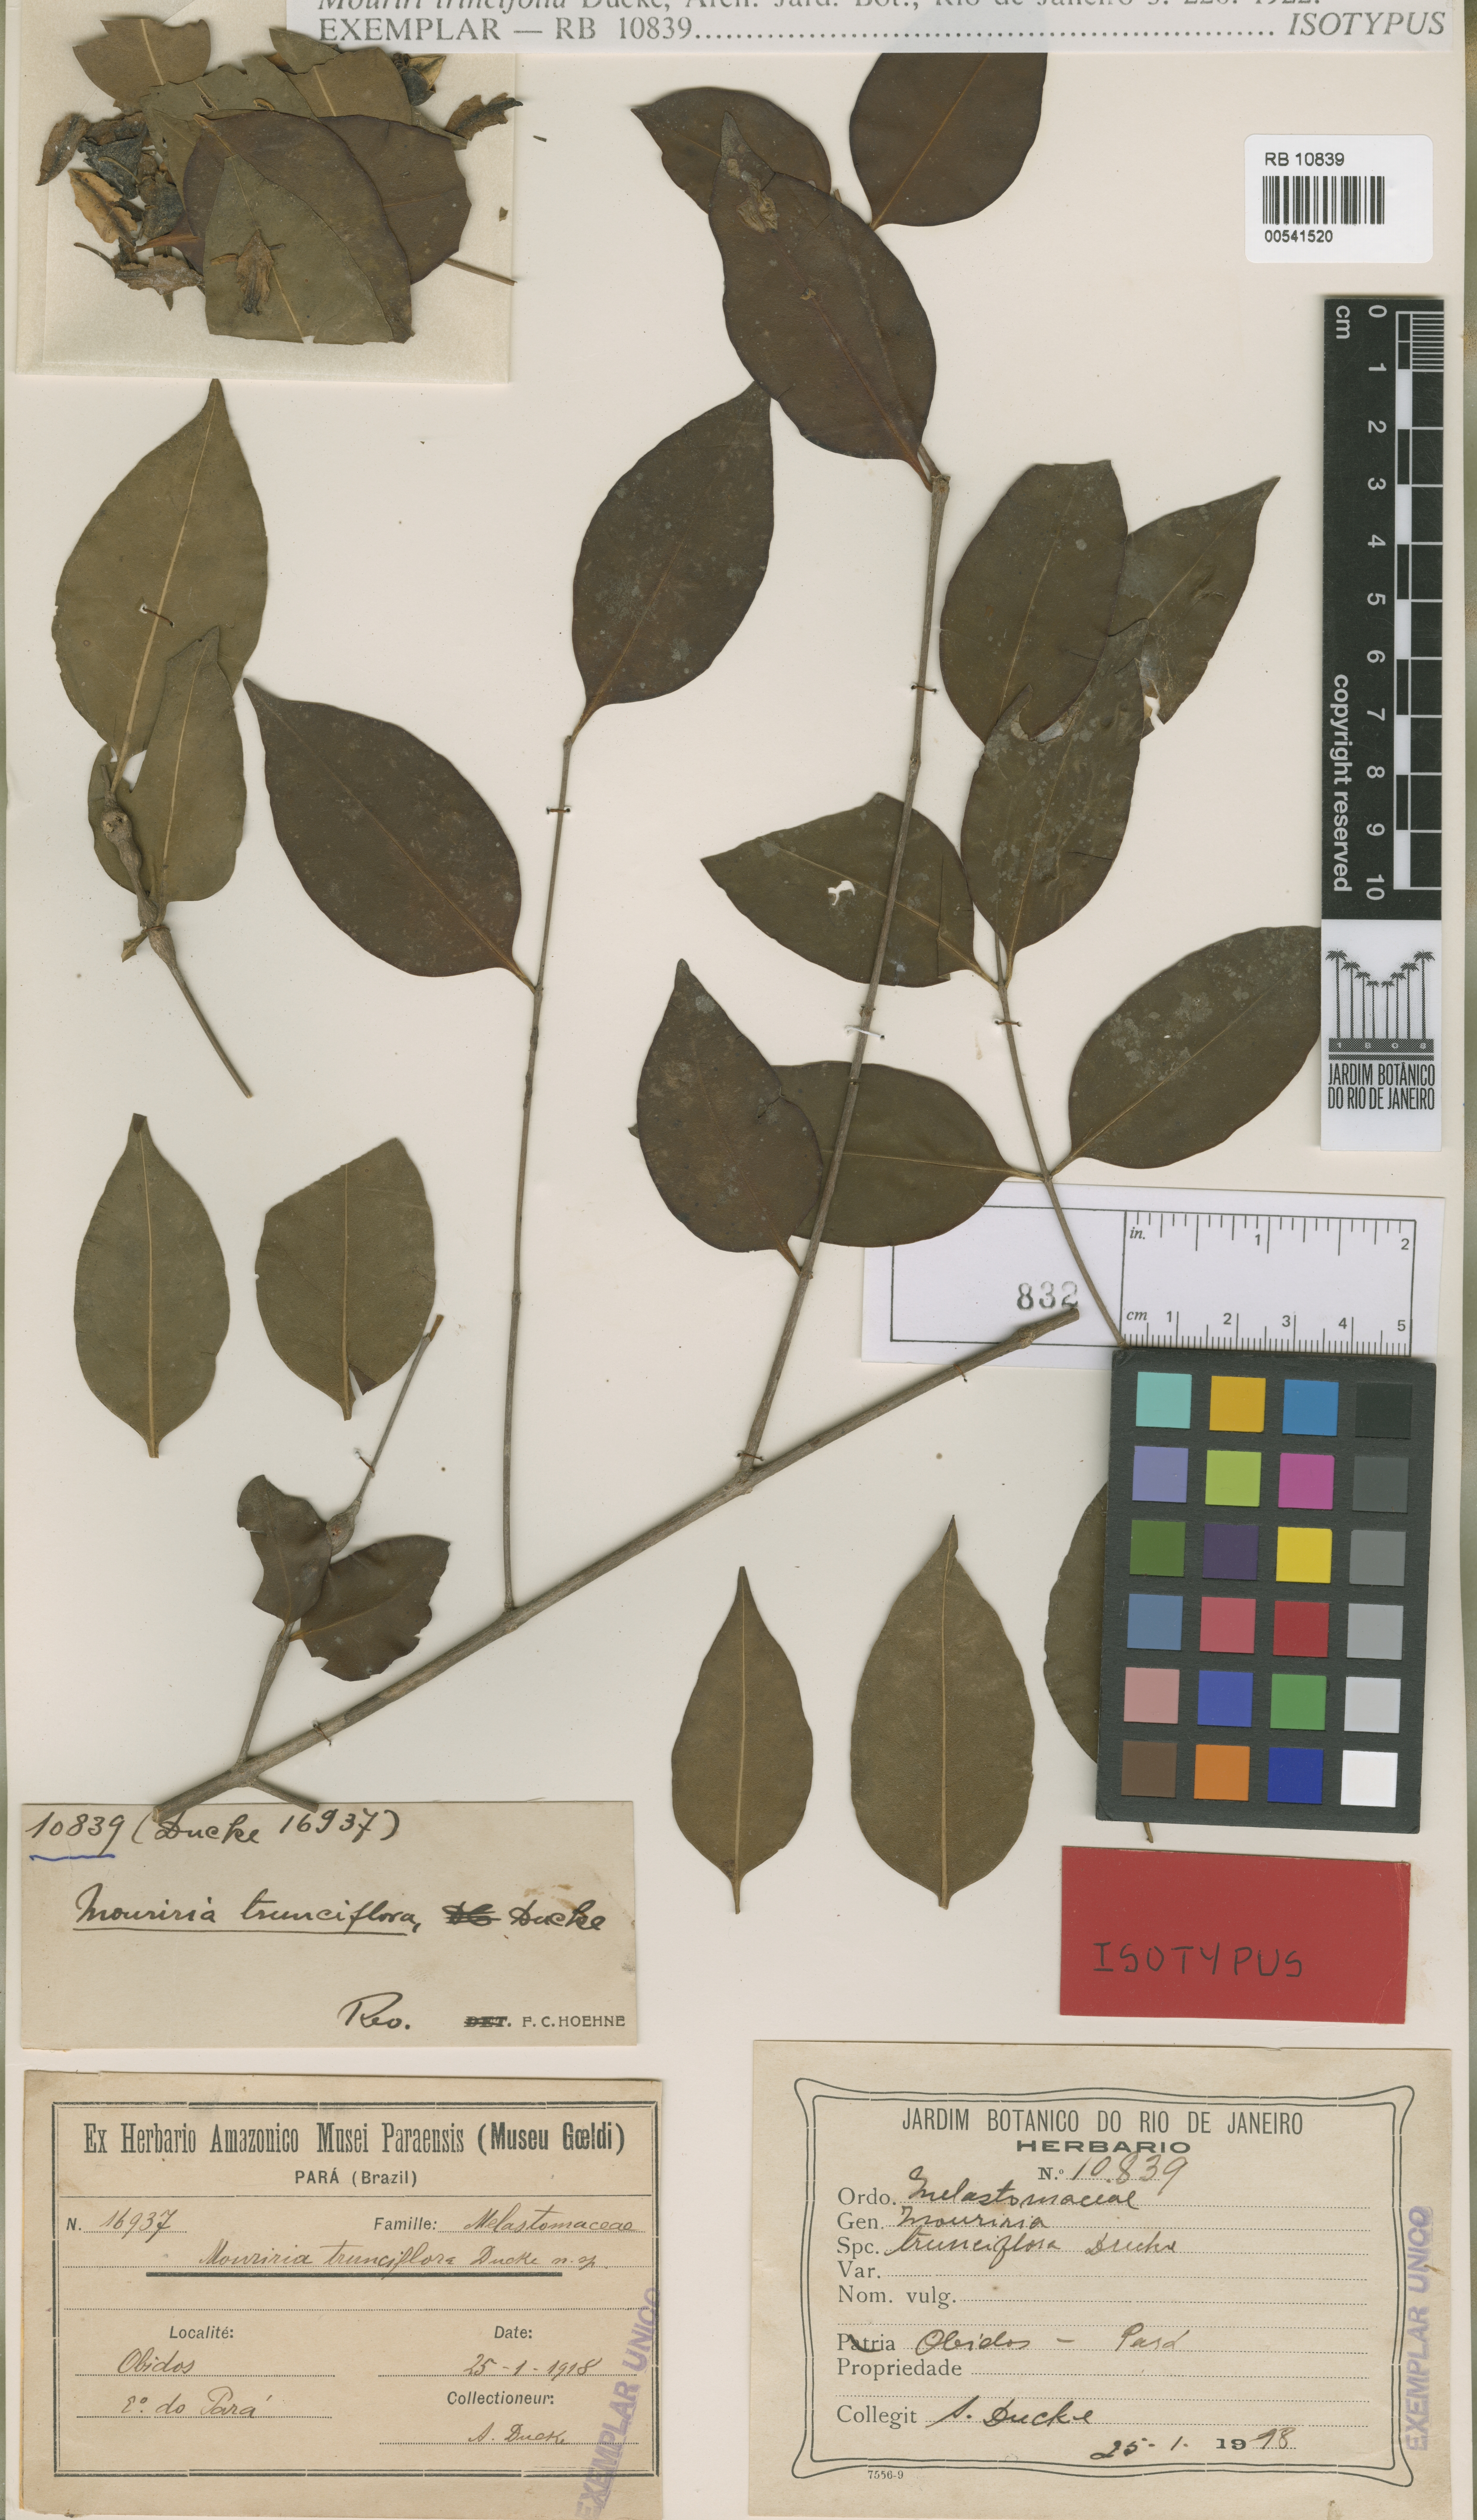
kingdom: Plantae
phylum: Tracheophyta
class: Magnoliopsida
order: Myrtales
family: Melastomataceae
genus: Mouriri
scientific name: Mouriri trunciflora
